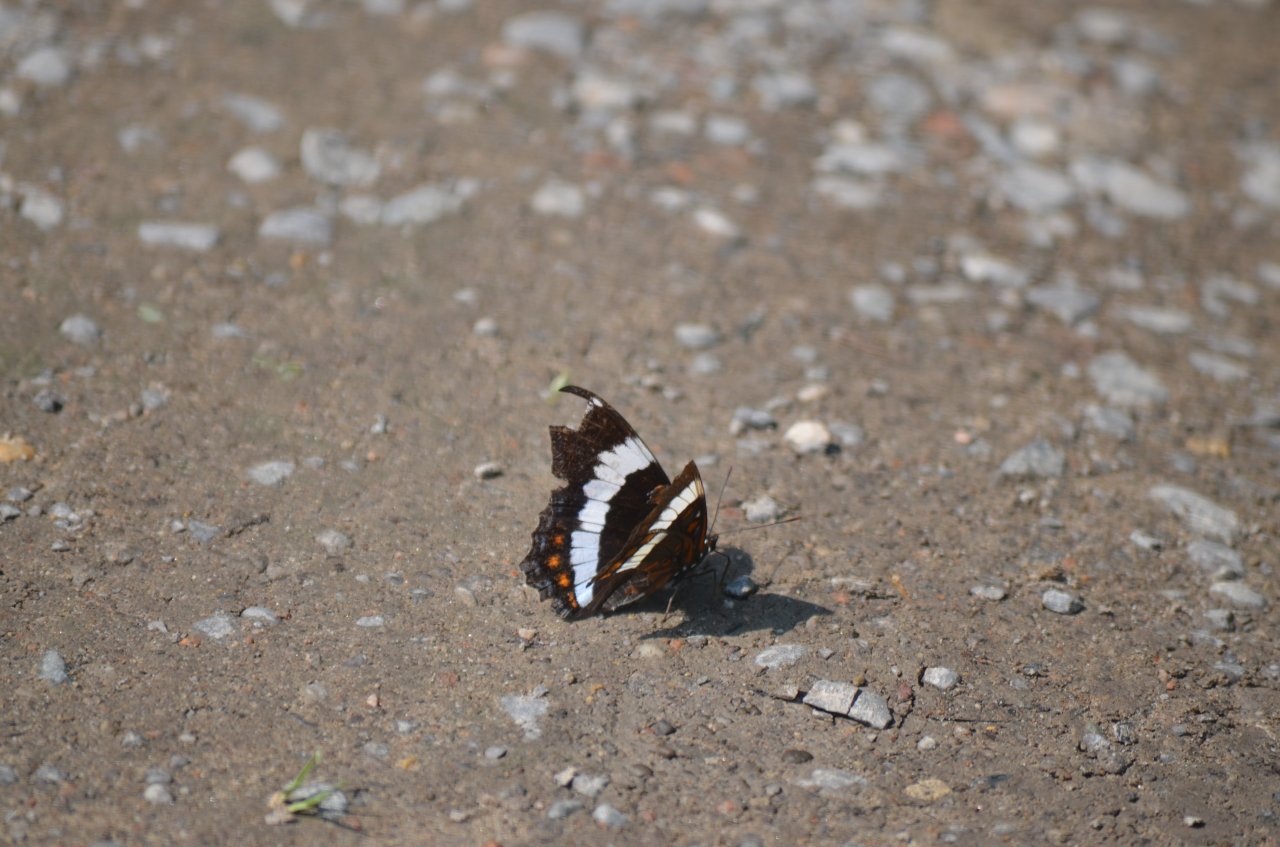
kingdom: Animalia
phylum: Arthropoda
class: Insecta
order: Lepidoptera
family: Nymphalidae
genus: Limenitis
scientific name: Limenitis arthemis
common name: Red-spotted Admiral
